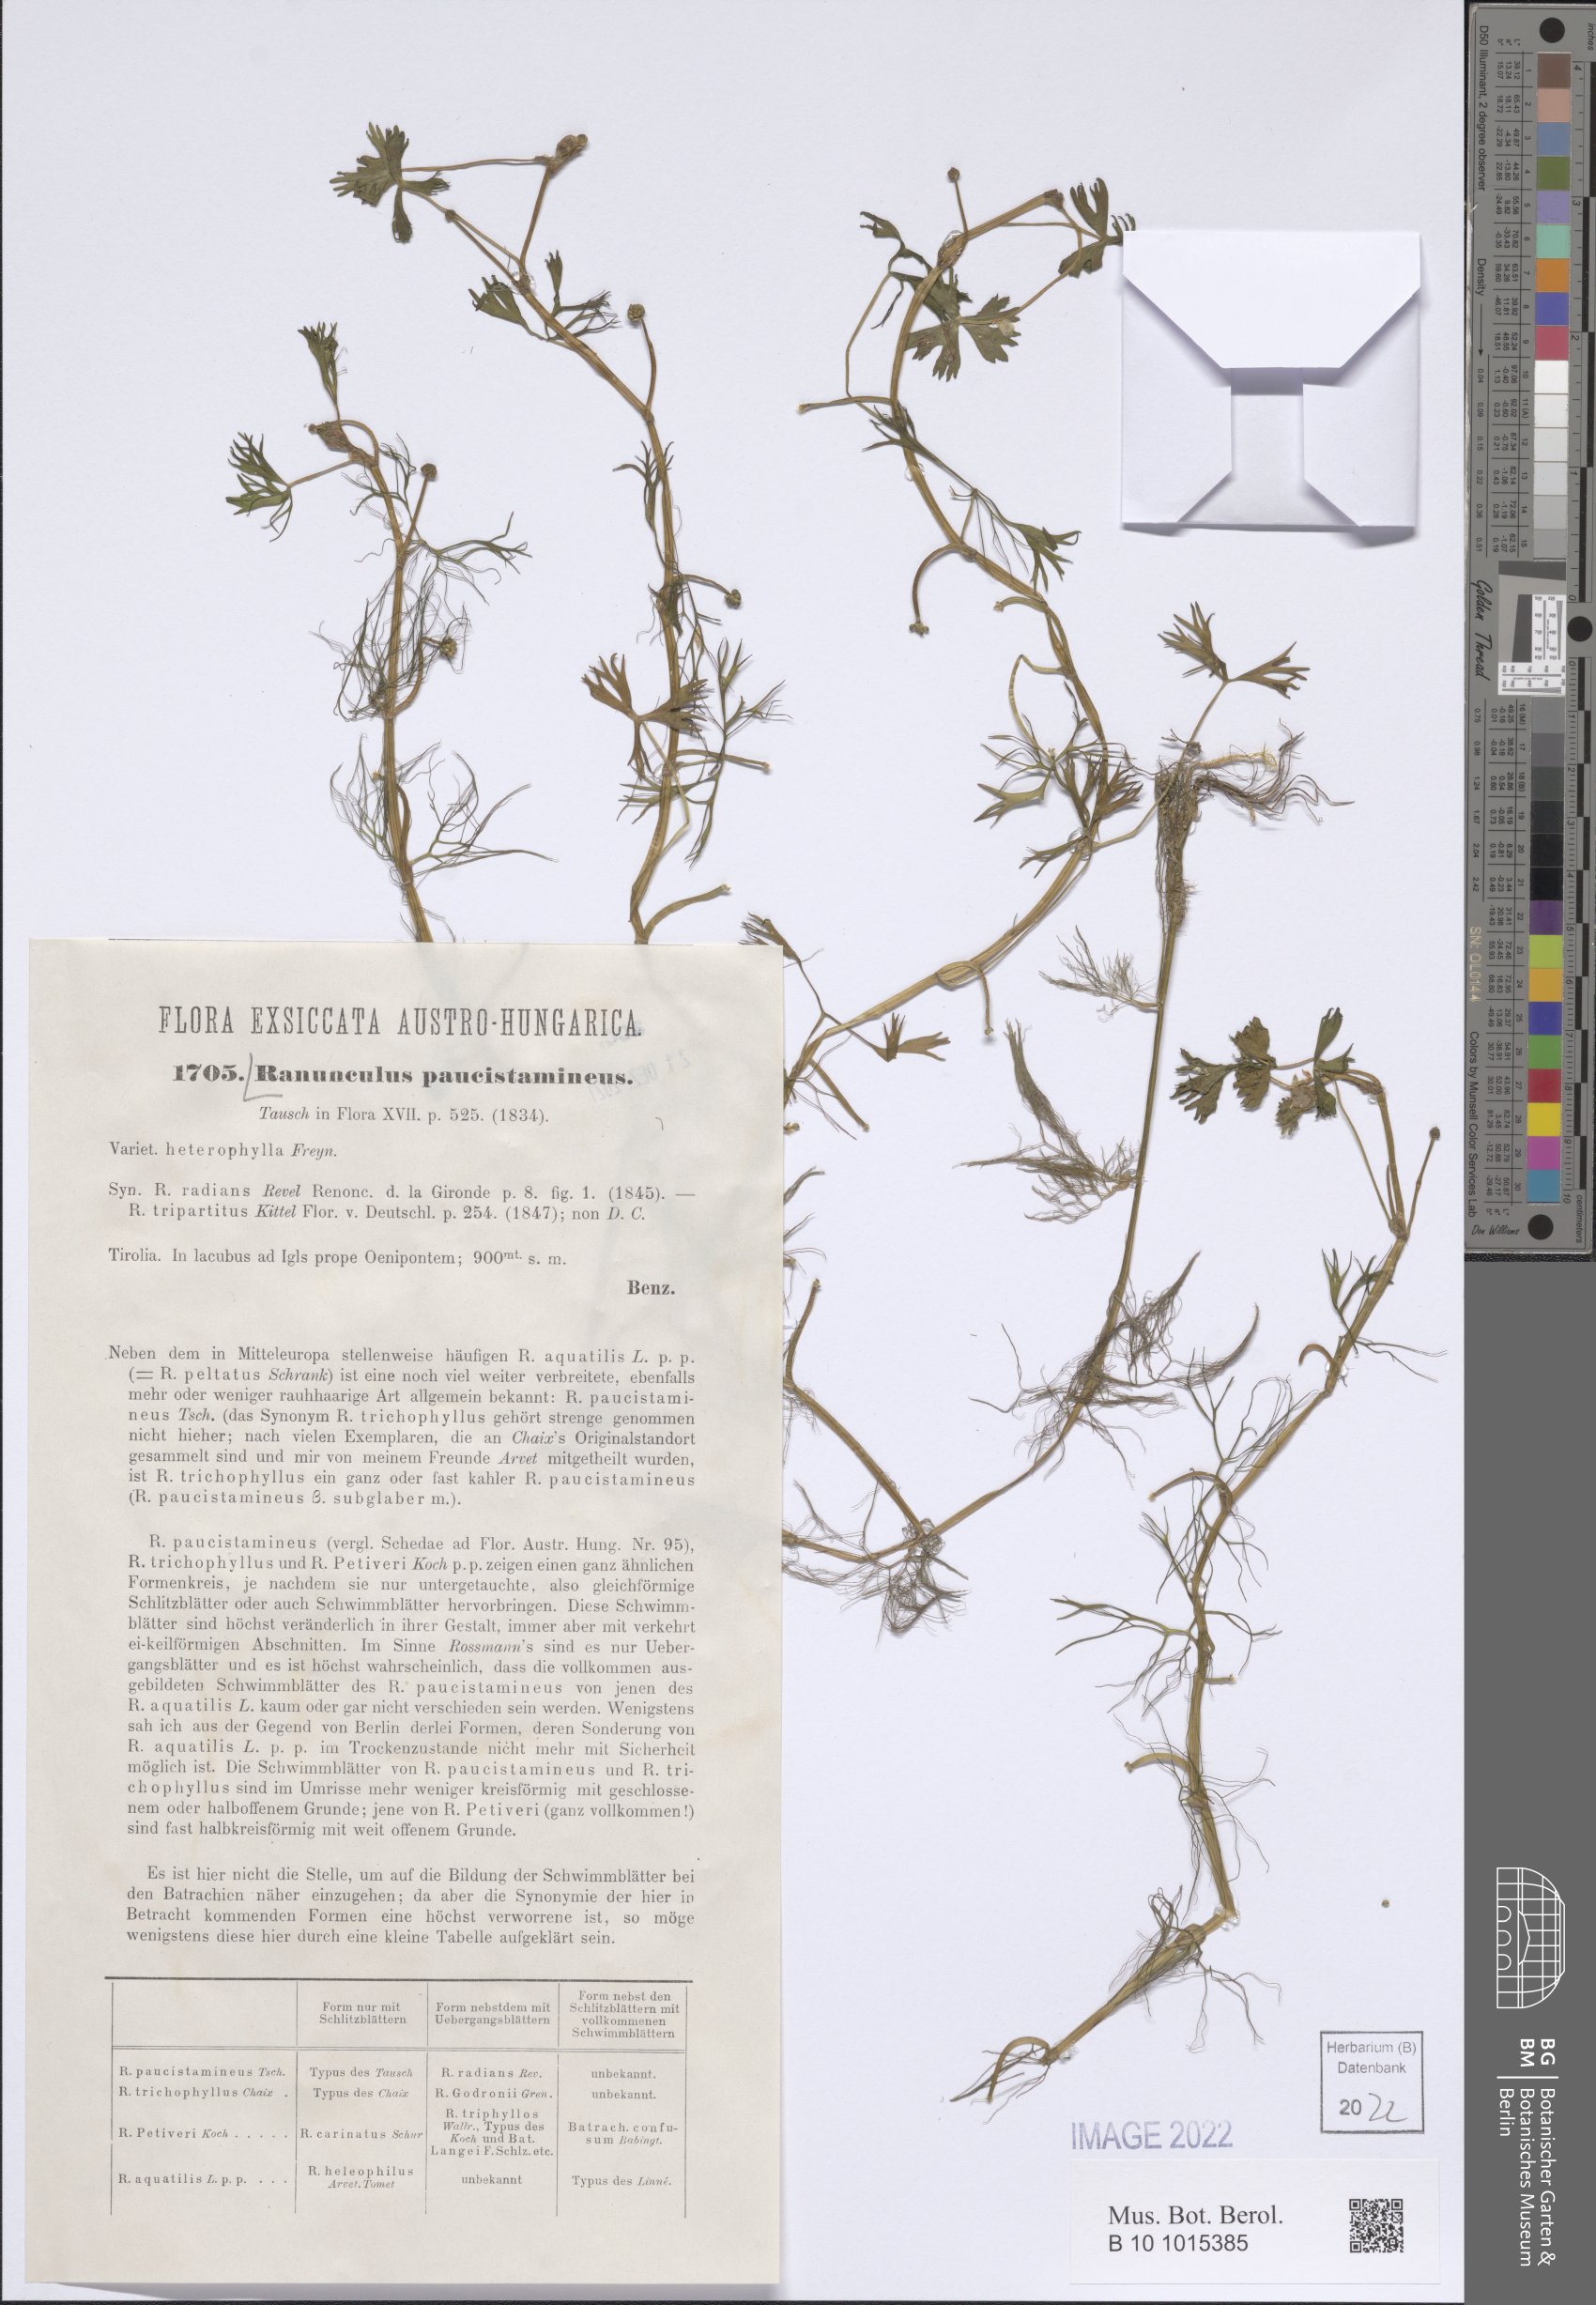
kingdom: Plantae
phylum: Tracheophyta
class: Magnoliopsida
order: Ranunculales
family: Ranunculaceae
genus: Ranunculus
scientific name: Ranunculus trichophyllus
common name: Thread-leaved water-crowfoot
